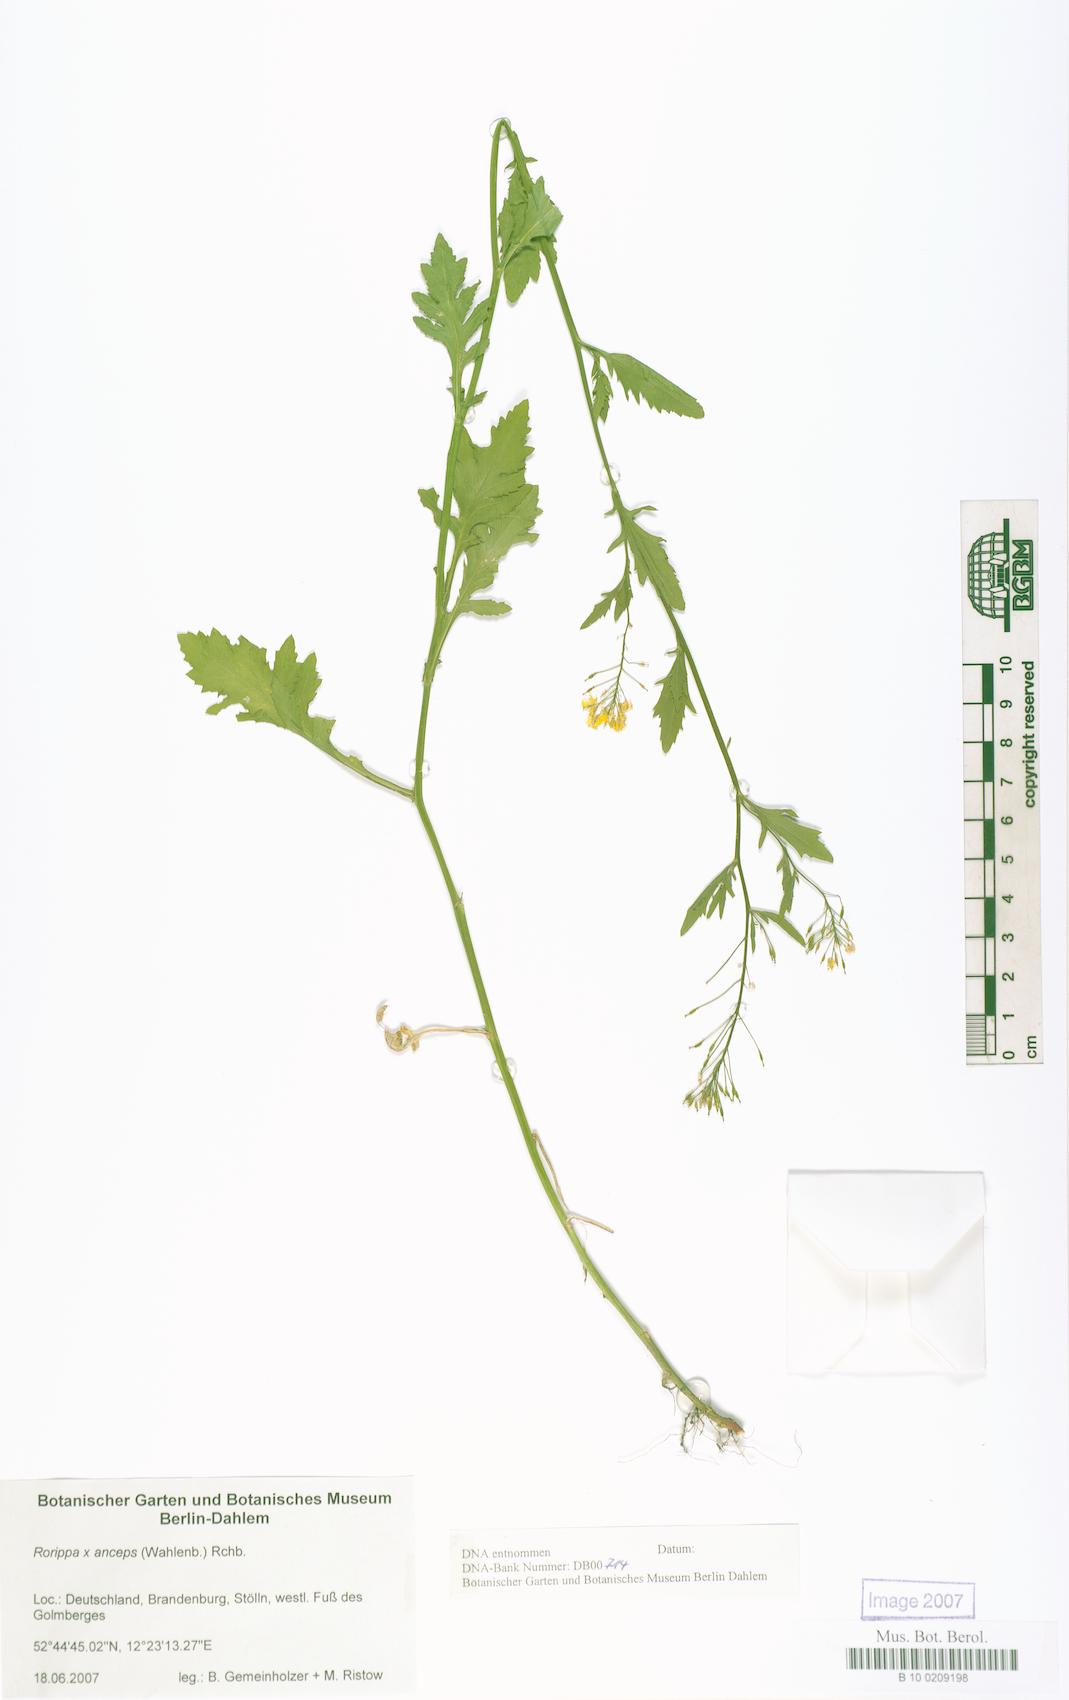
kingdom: Plantae
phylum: Tracheophyta
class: Magnoliopsida
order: Brassicales
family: Brassicaceae
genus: Rorippa
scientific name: Rorippa anceps
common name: Rorippa
